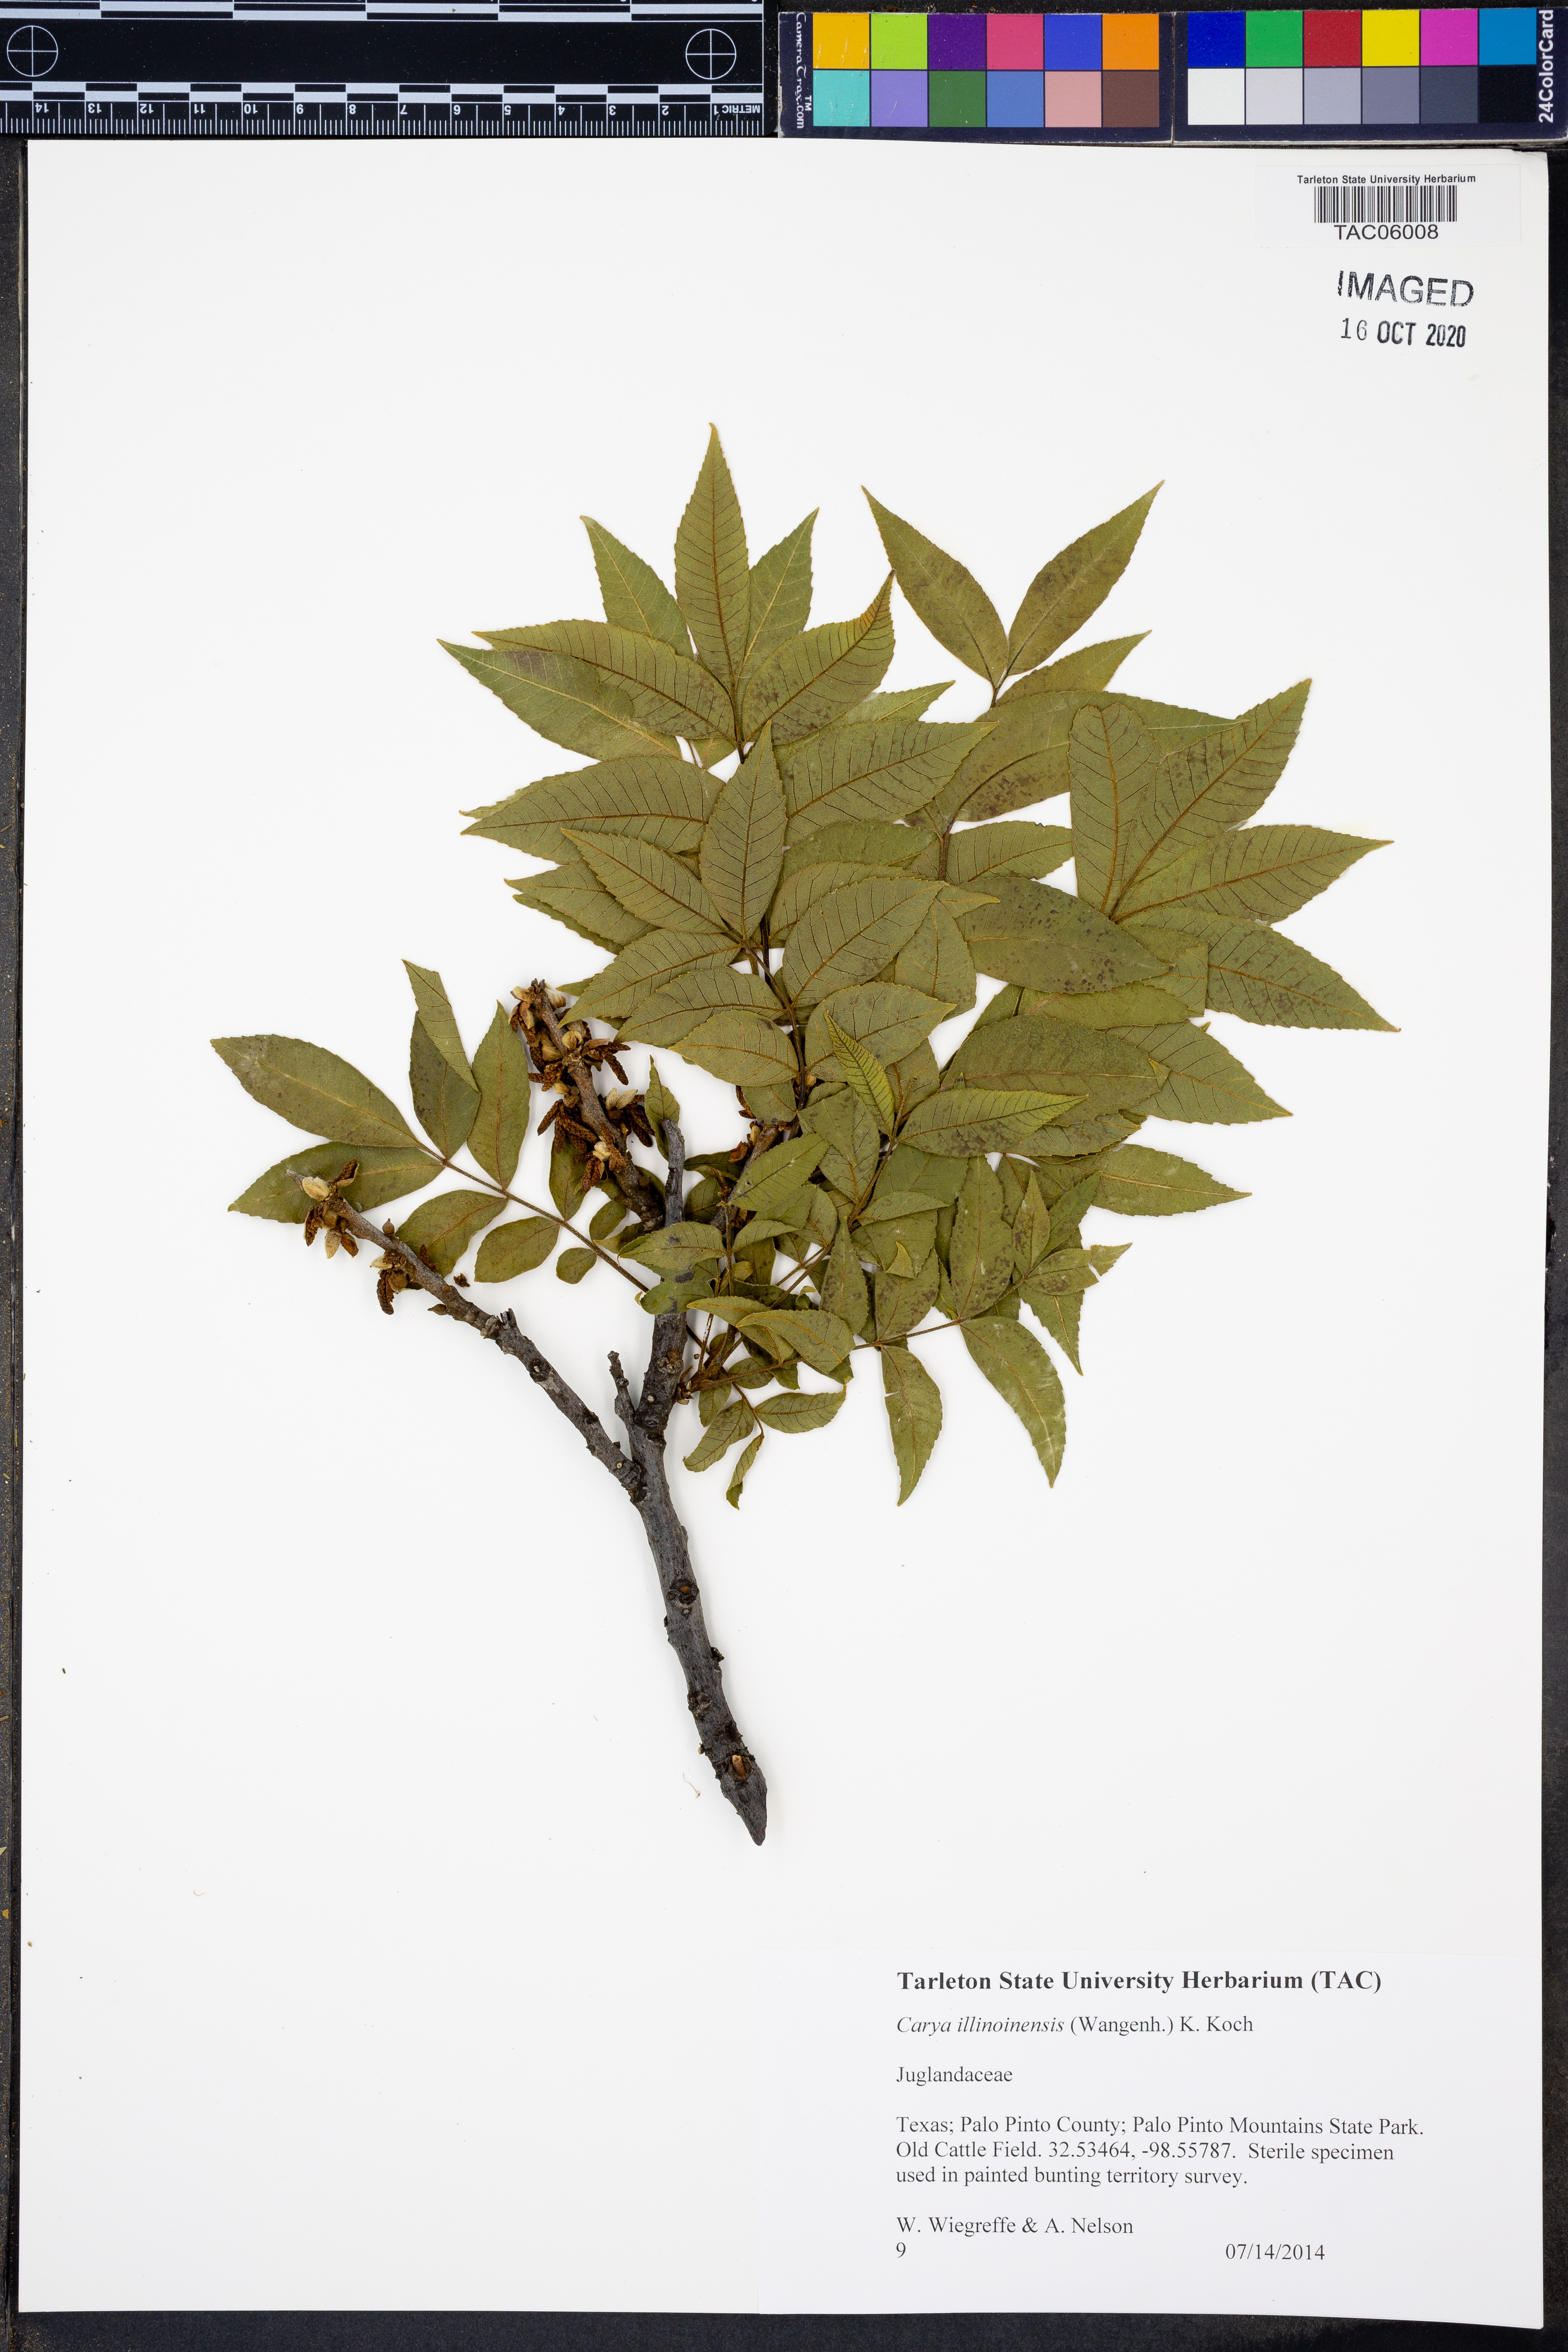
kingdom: Plantae
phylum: Tracheophyta
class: Magnoliopsida
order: Fagales
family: Juglandaceae
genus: Carya
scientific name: Carya illinoinensis
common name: Pecan
